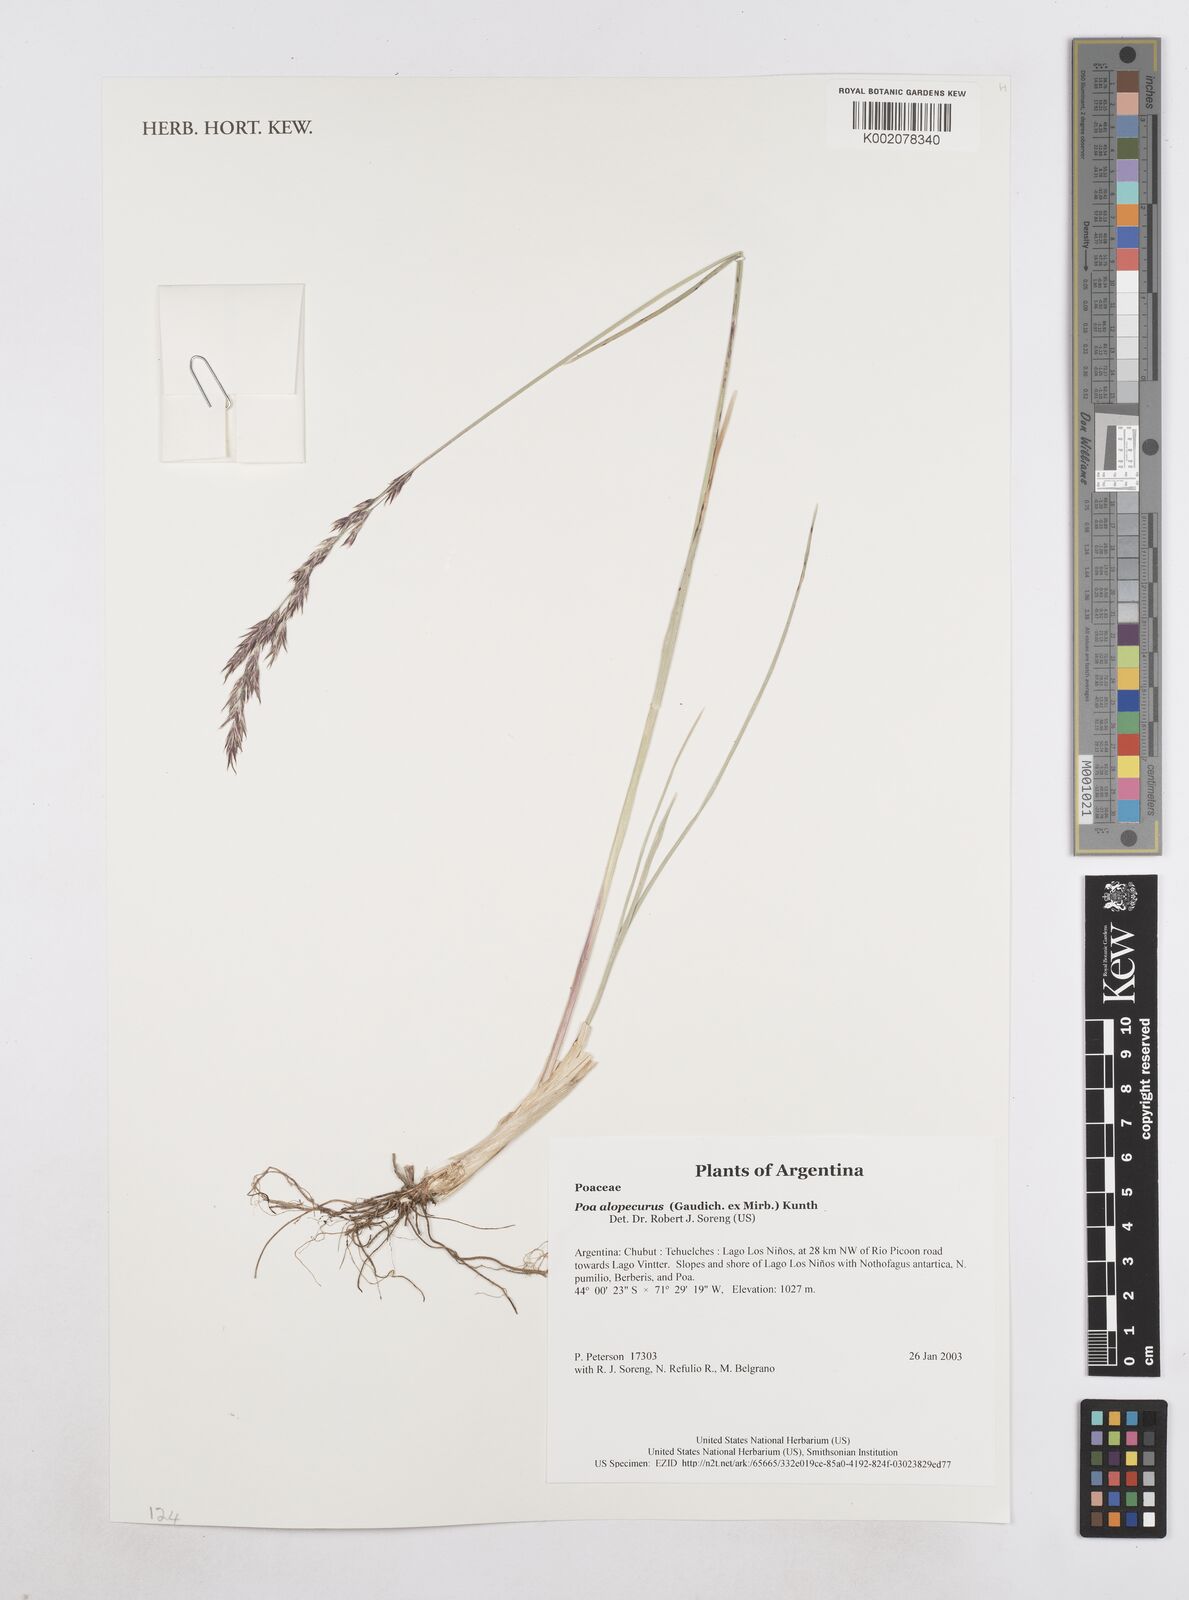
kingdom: Plantae
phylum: Tracheophyta
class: Liliopsida
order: Poales
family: Poaceae
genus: Poa
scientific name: Poa alopecurus
